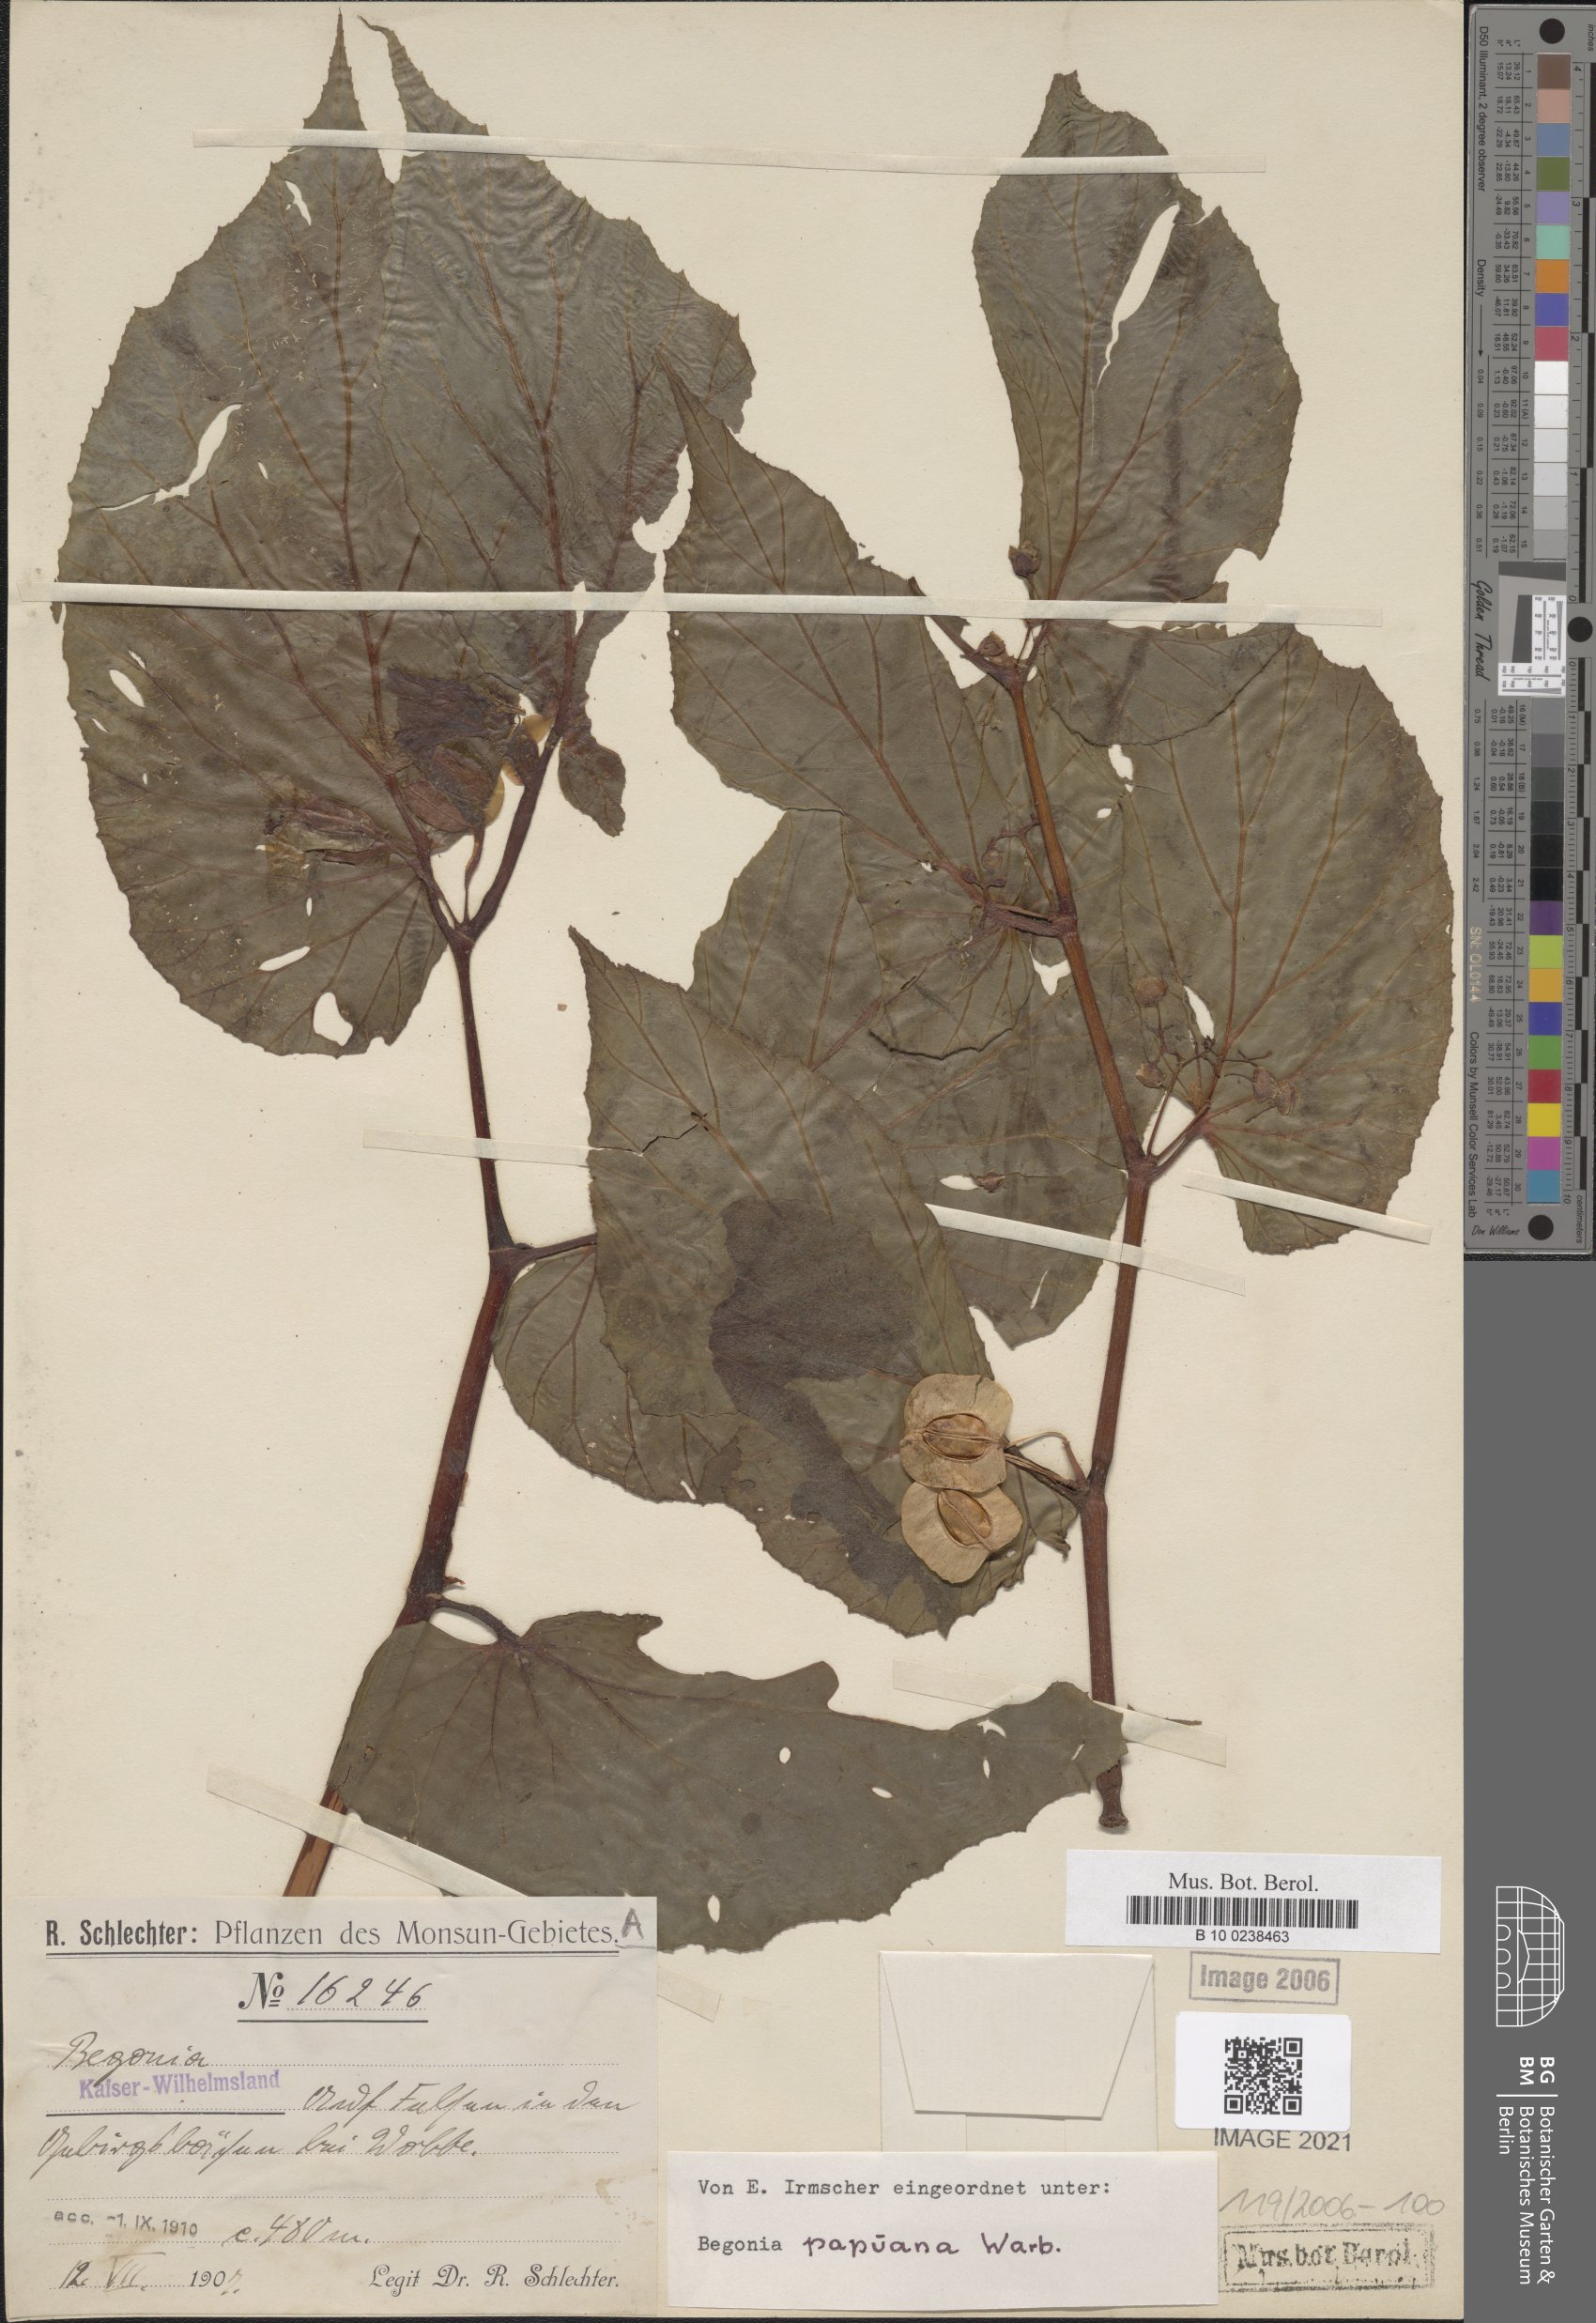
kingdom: Plantae
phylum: Tracheophyta
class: Magnoliopsida
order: Cucurbitales
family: Begoniaceae
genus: Begonia
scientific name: Begonia papuana
